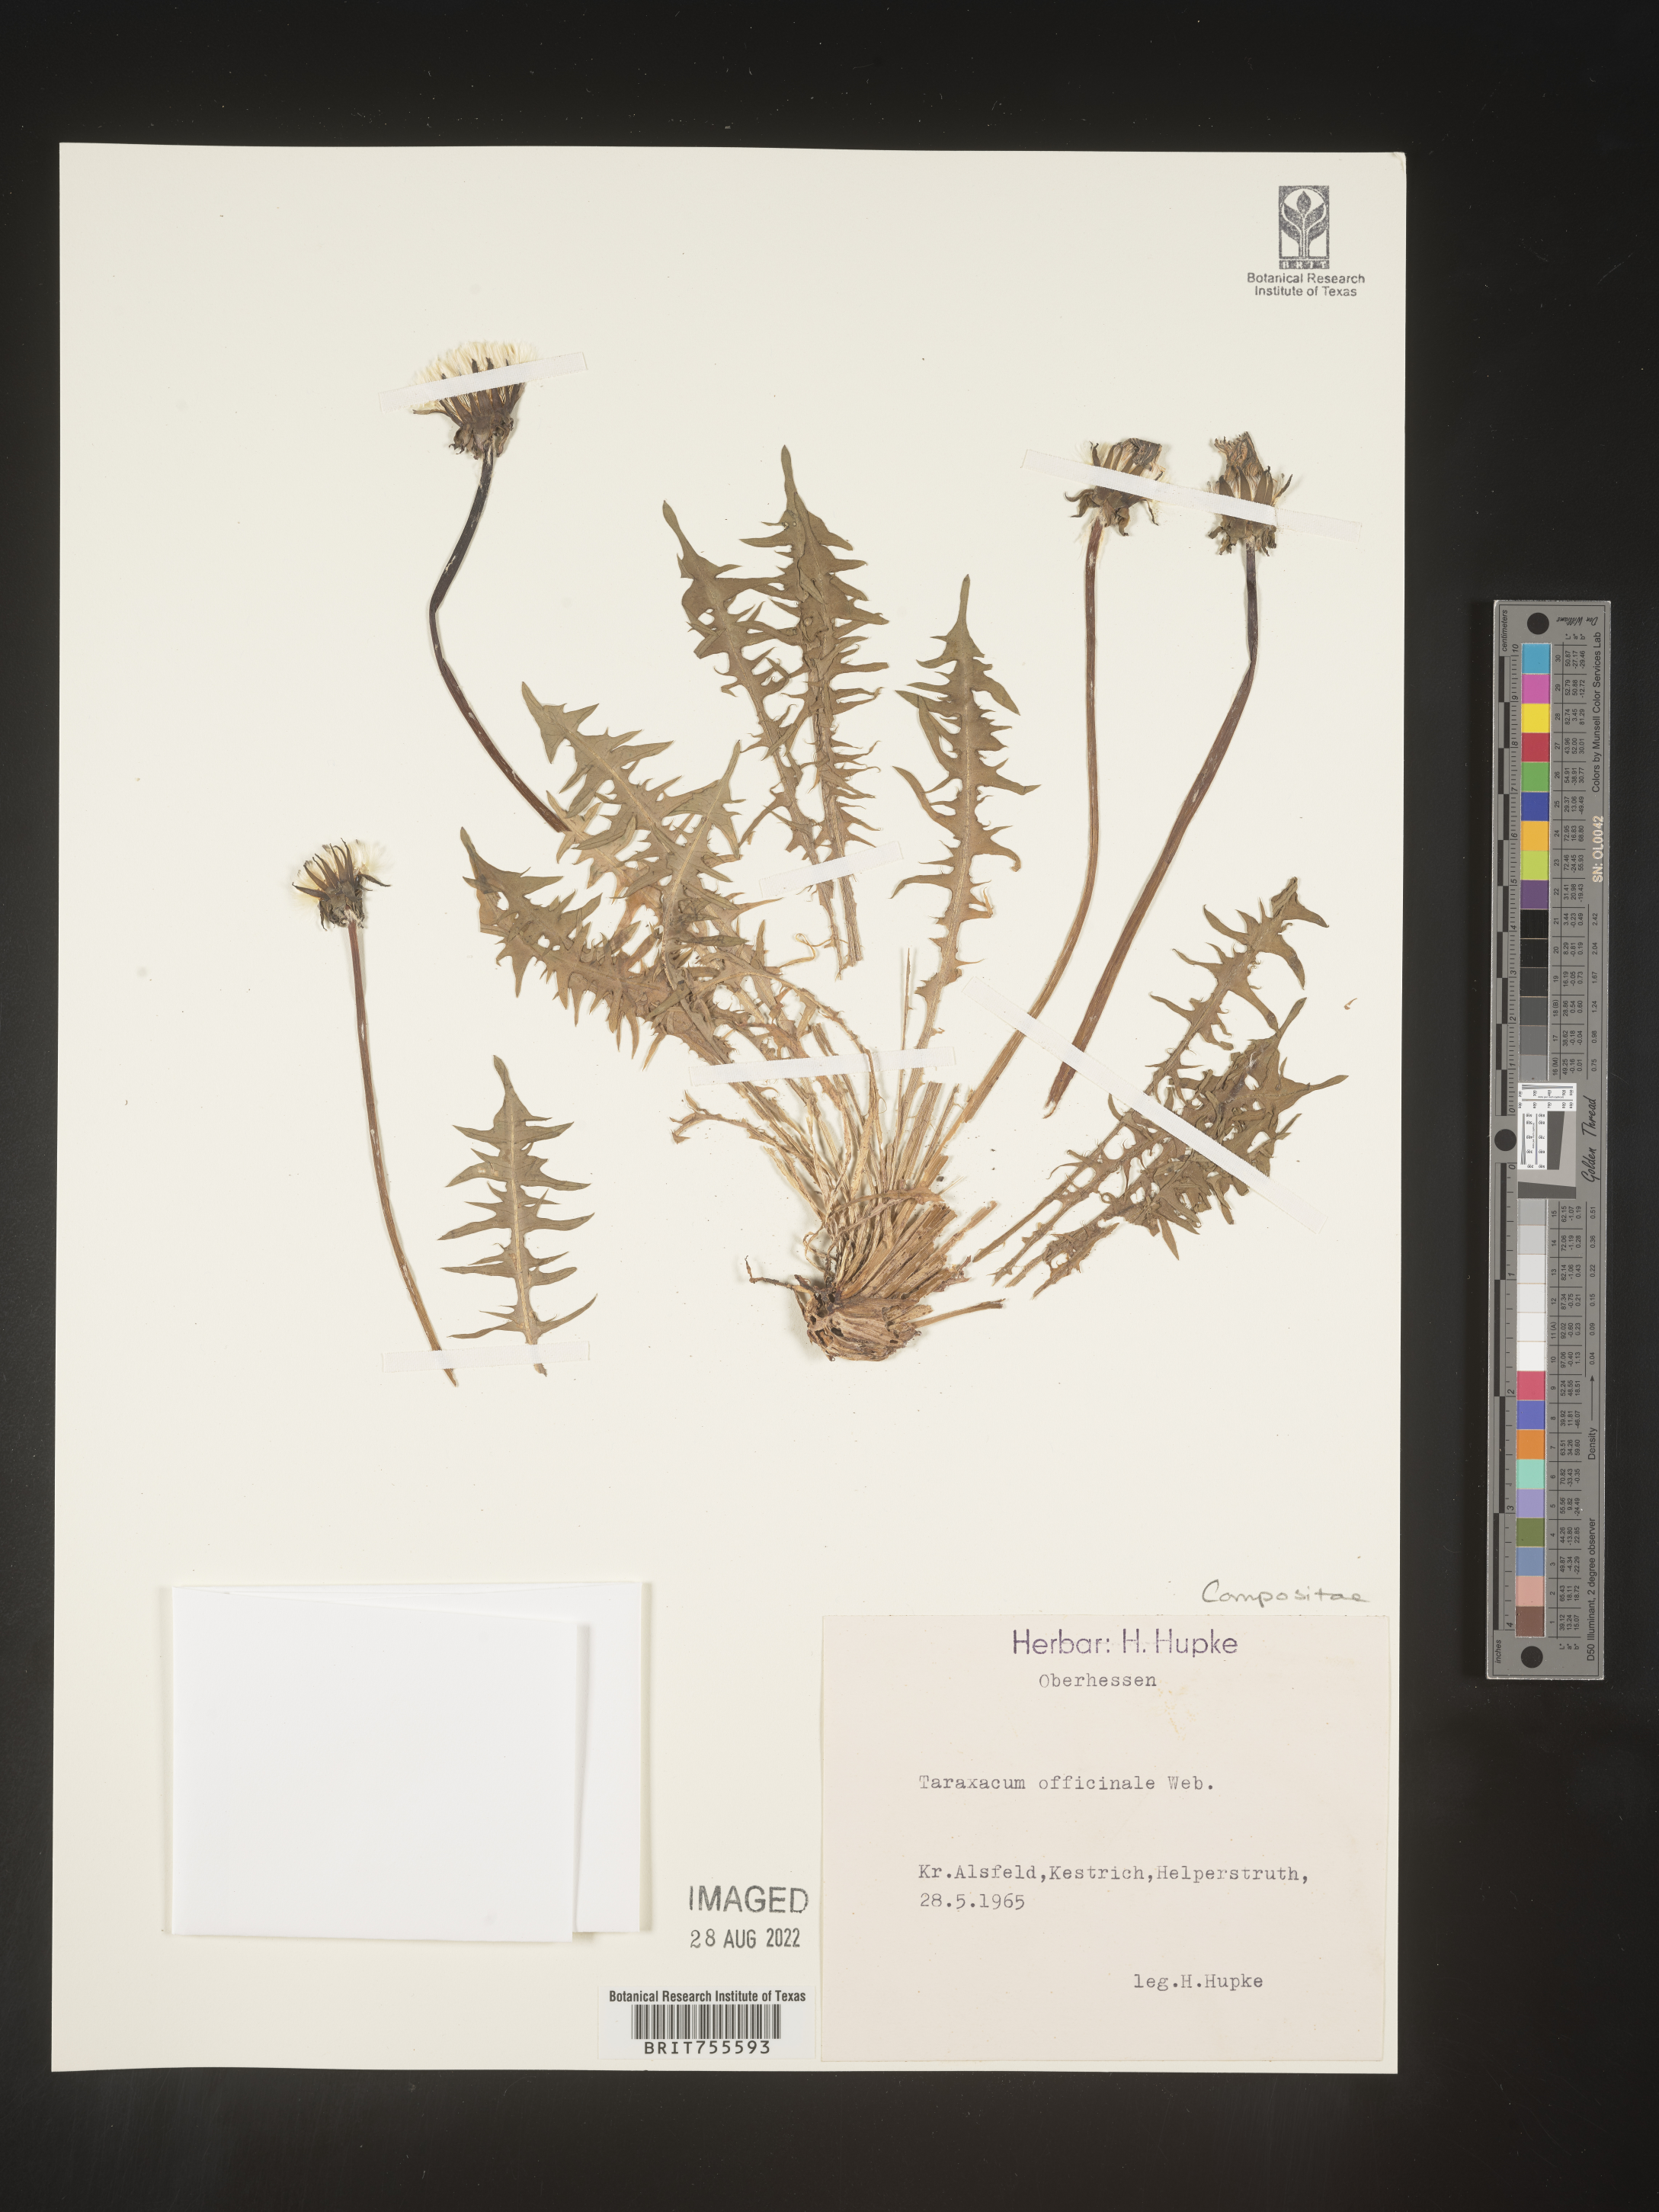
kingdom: Plantae
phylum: Tracheophyta
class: Magnoliopsida
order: Asterales
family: Asteraceae
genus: Taraxacum
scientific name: Taraxacum
